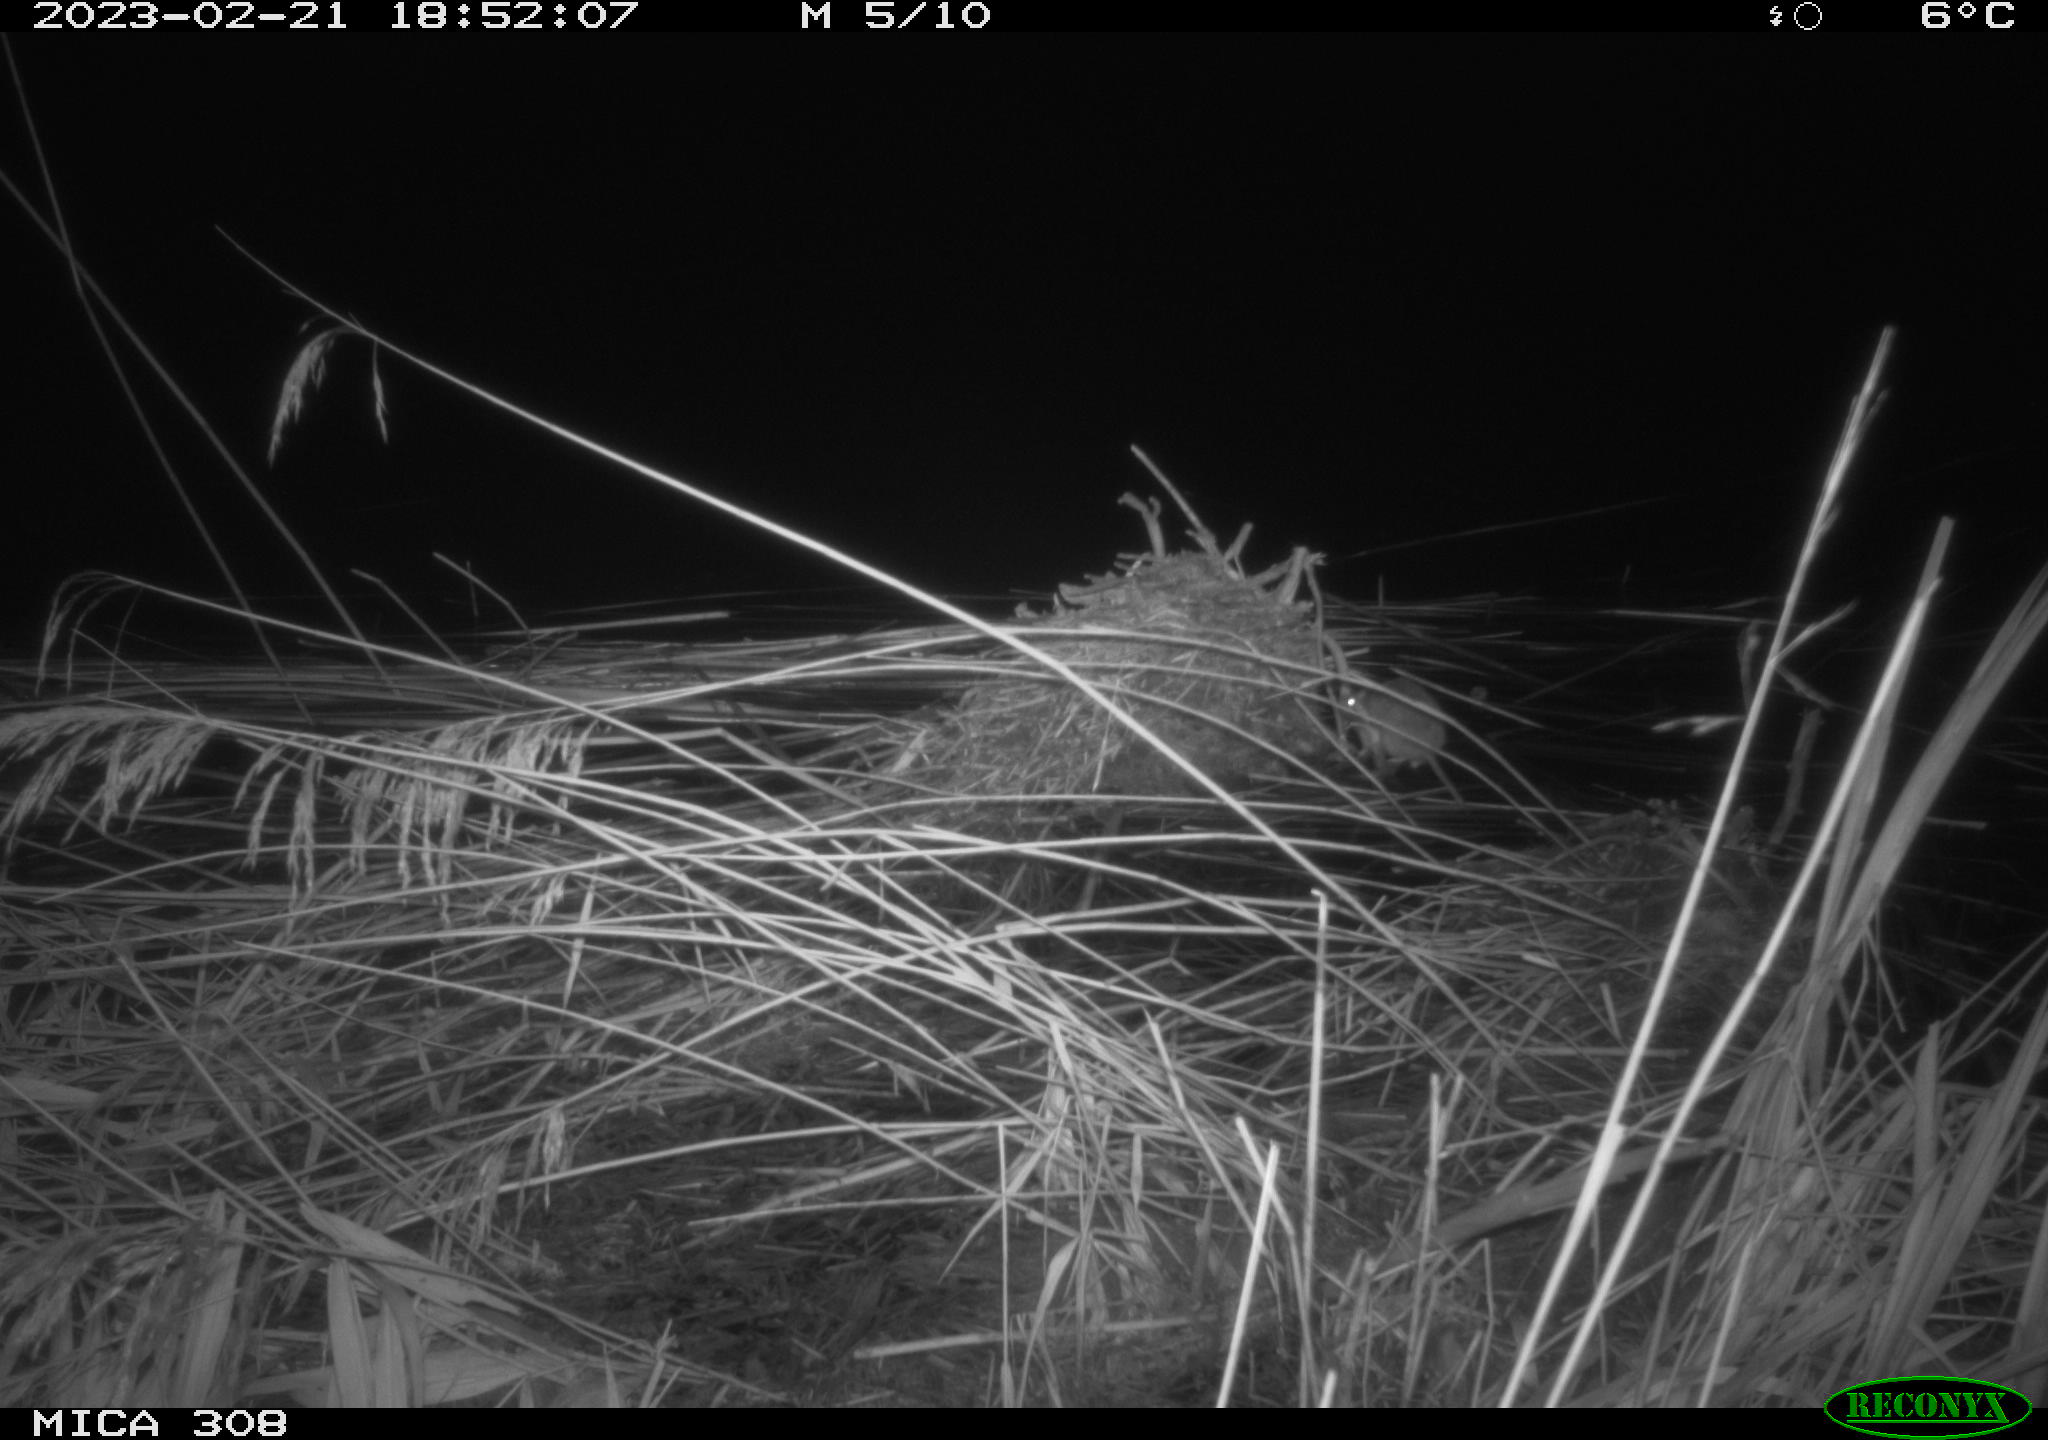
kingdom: Animalia
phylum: Chordata
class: Mammalia
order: Rodentia
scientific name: Rodentia
